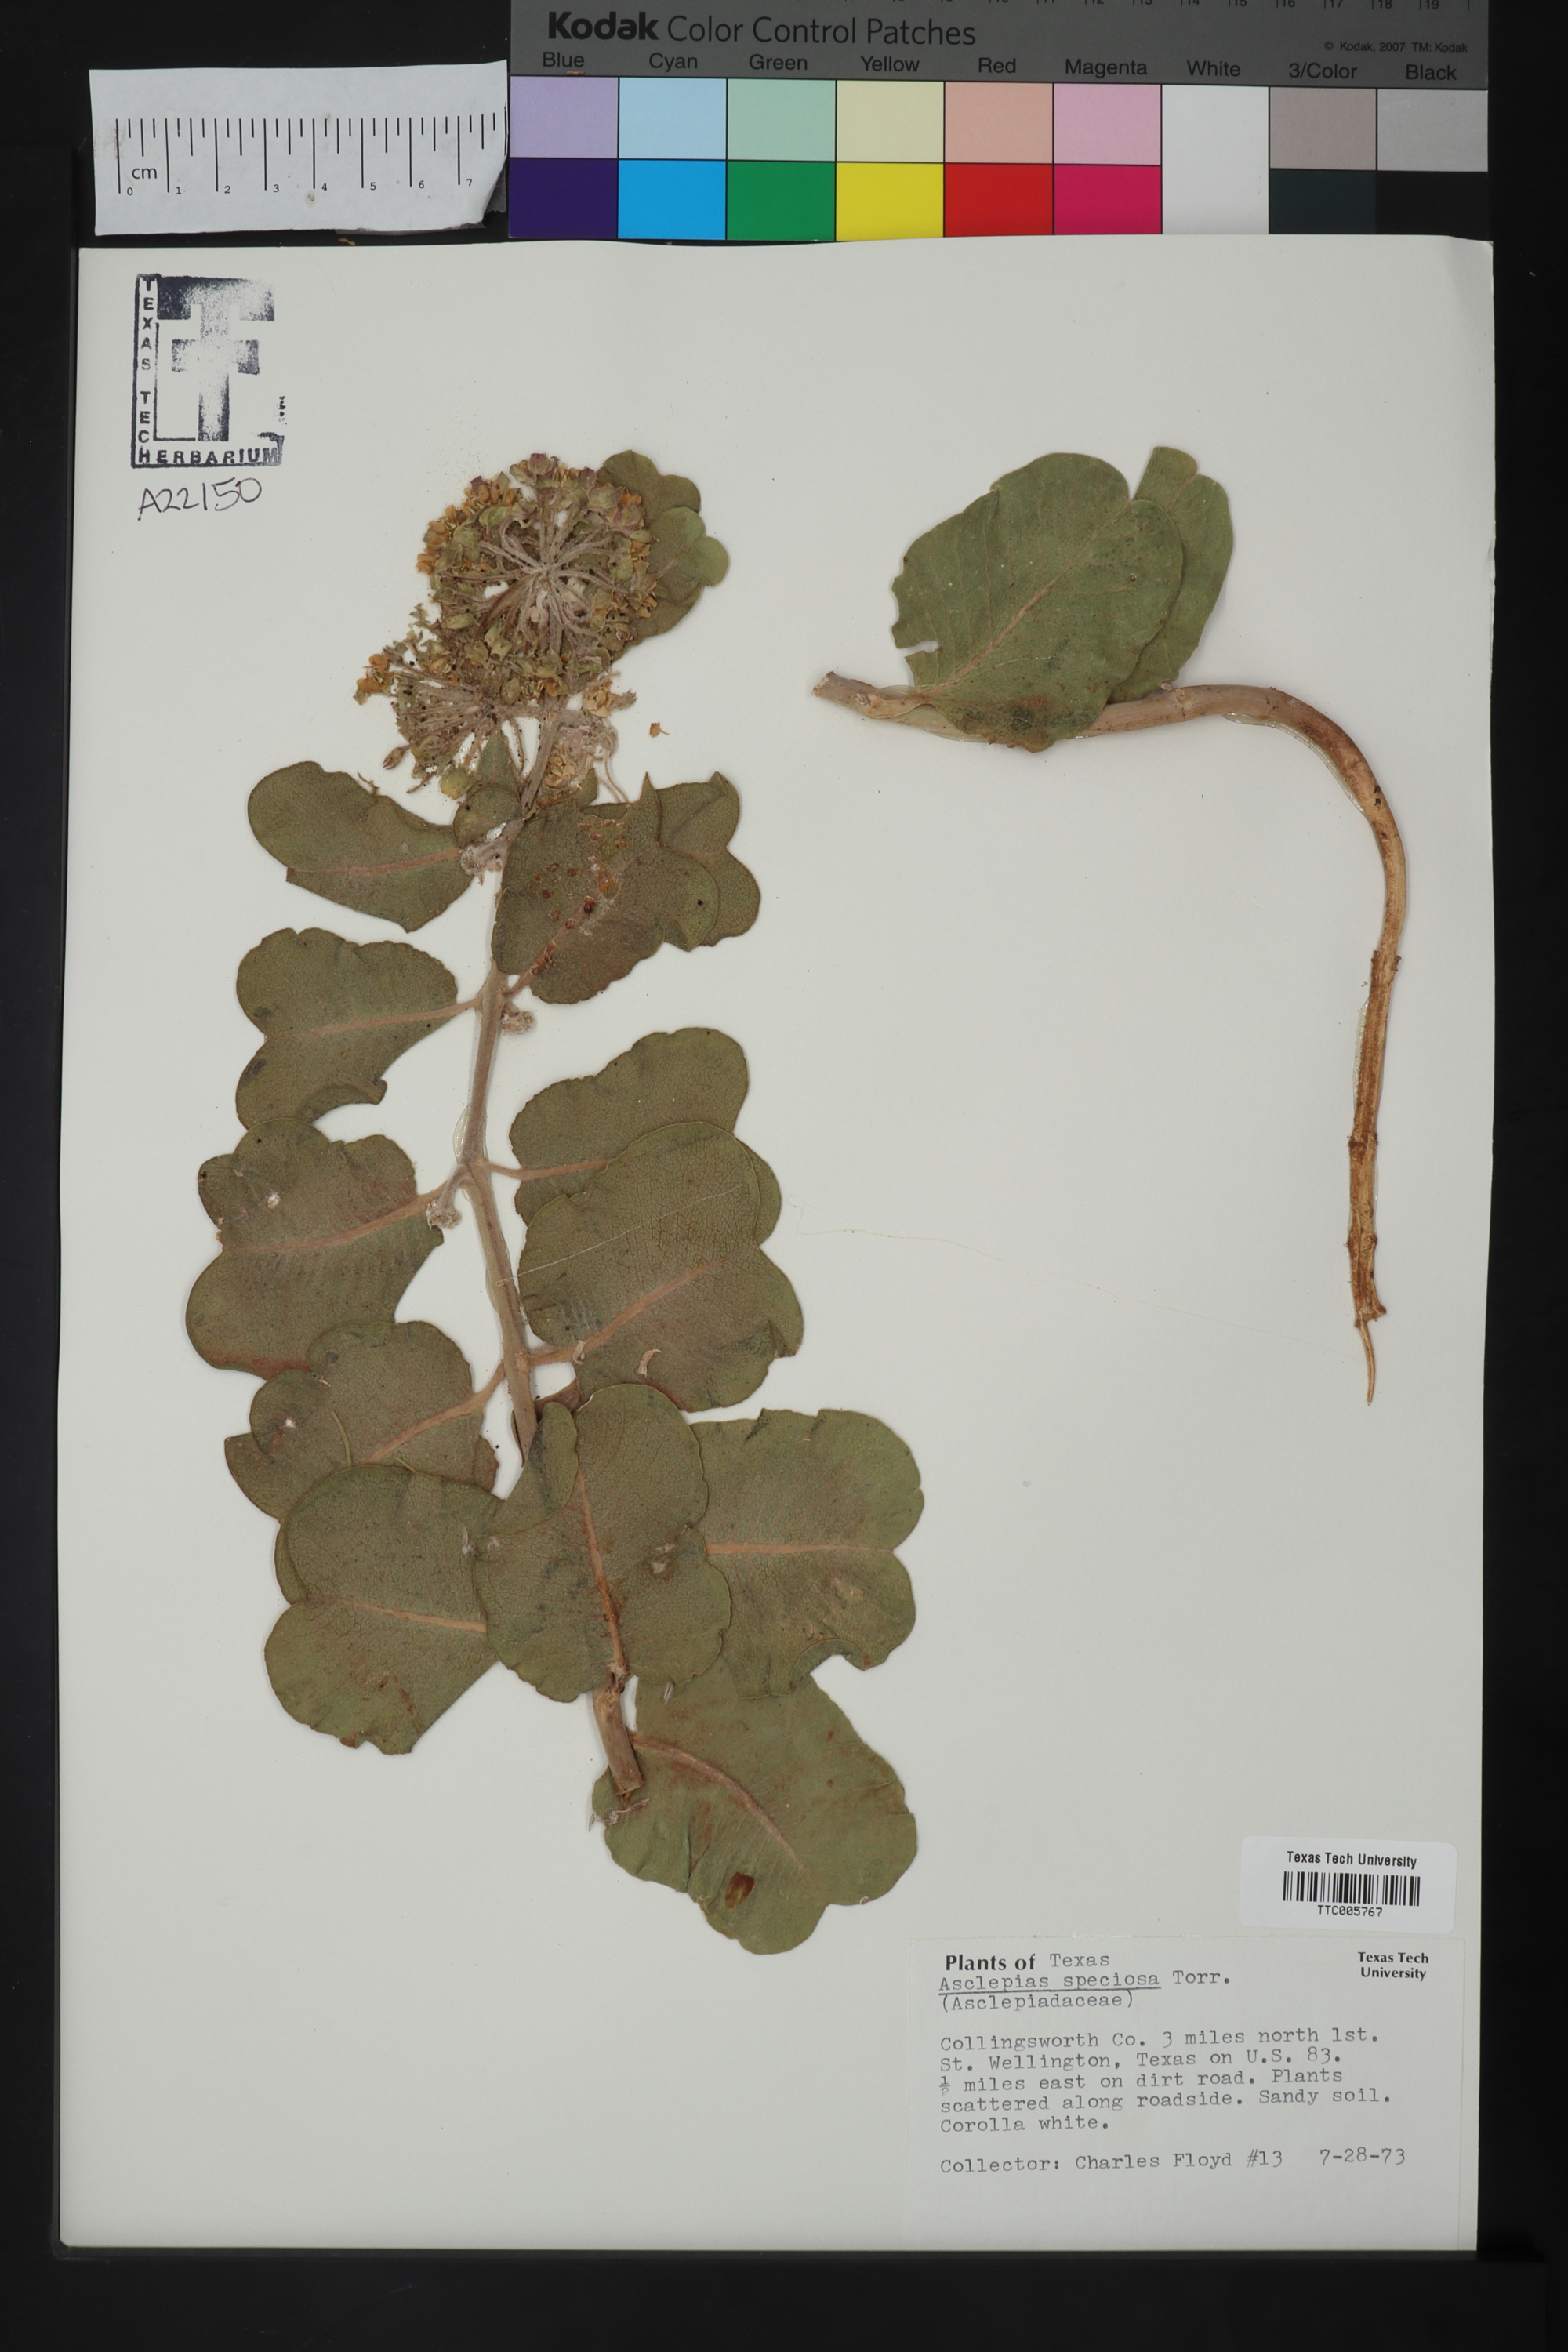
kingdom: Plantae
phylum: Tracheophyta
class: Magnoliopsida
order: Gentianales
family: Apocynaceae
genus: Asclepias
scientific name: Asclepias arenaria
